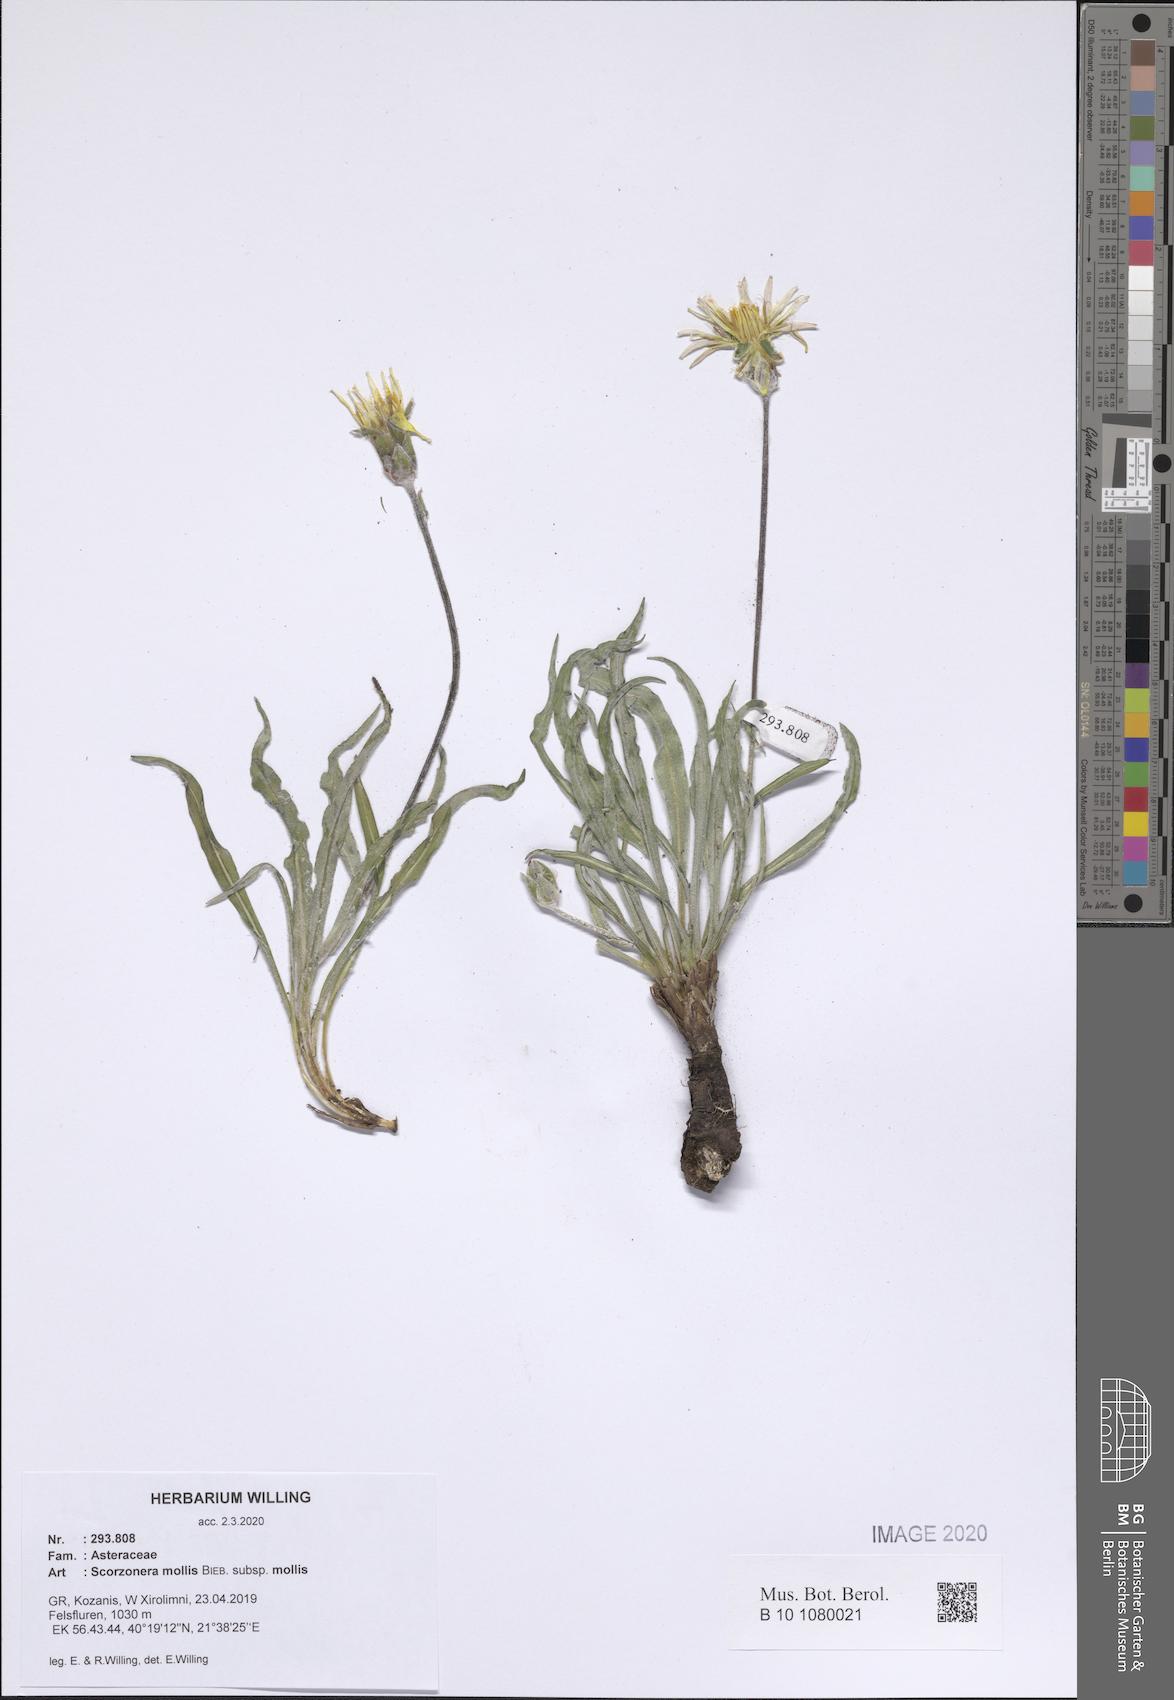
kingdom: Plantae
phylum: Tracheophyta
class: Magnoliopsida
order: Asterales
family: Asteraceae
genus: Candollea
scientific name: Candollea mollis
